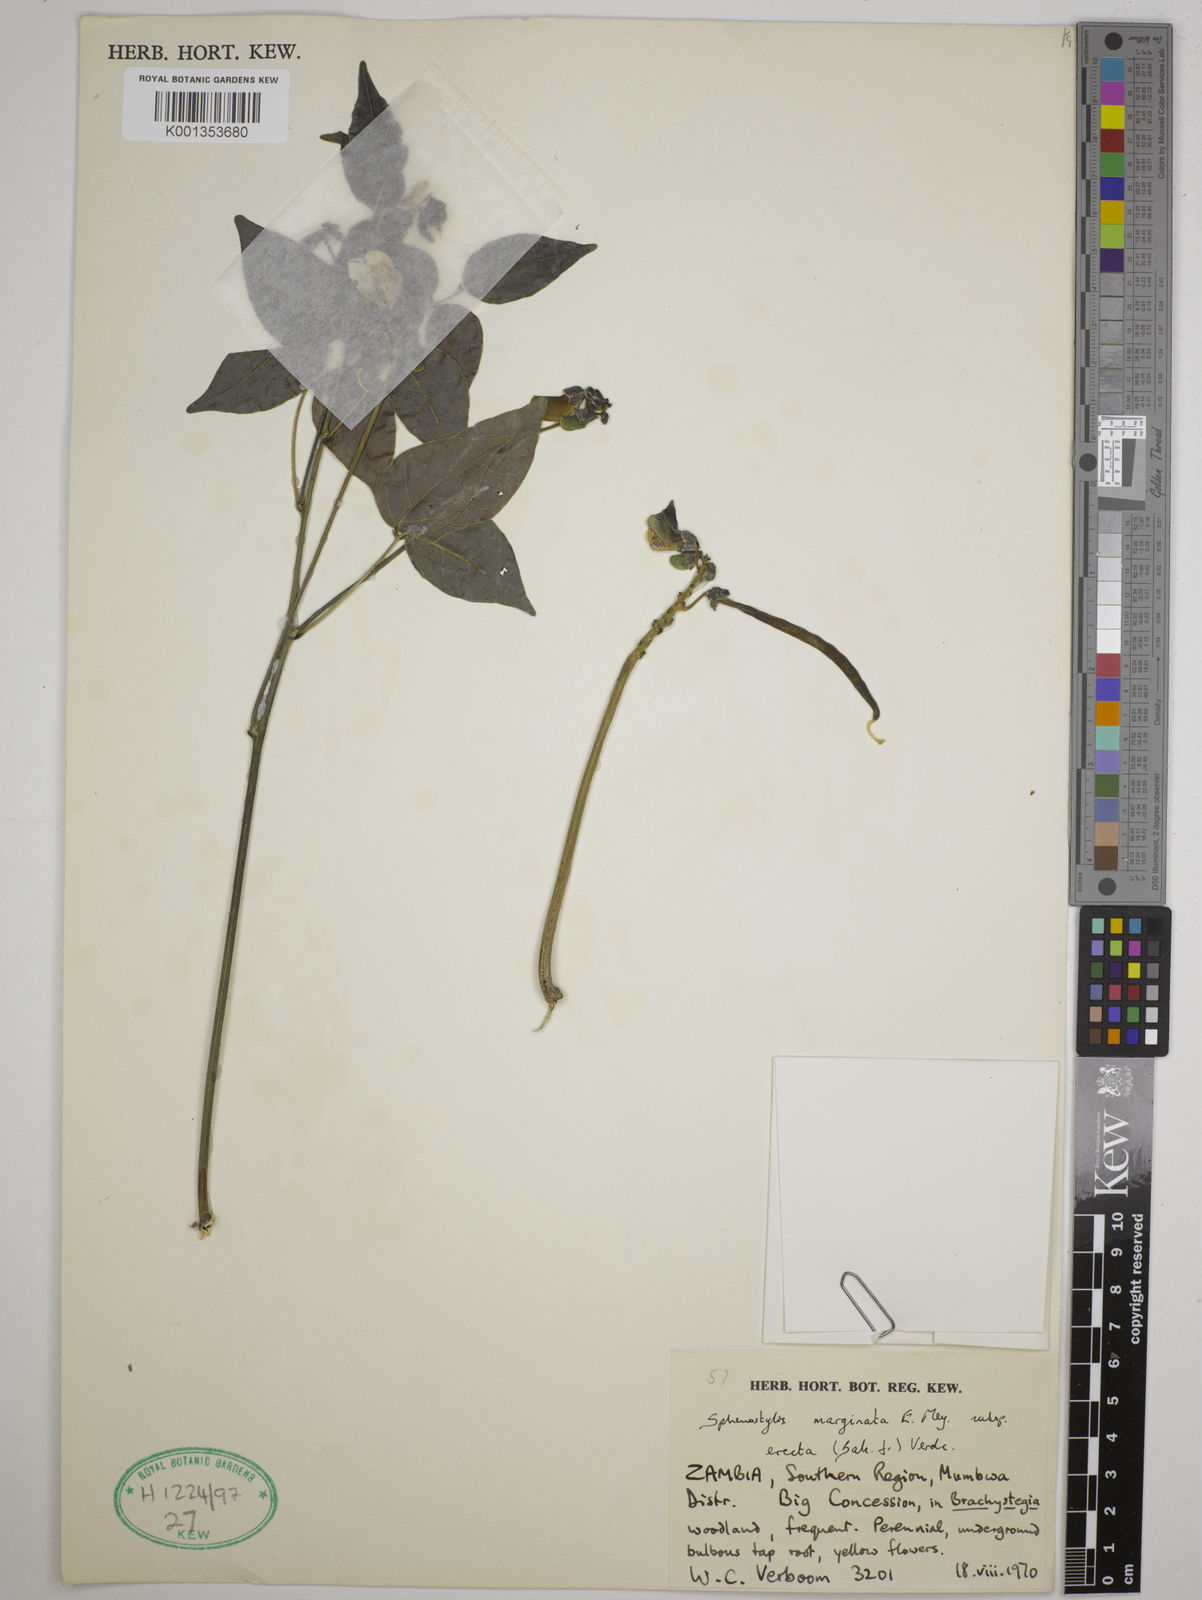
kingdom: Plantae
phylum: Tracheophyta
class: Magnoliopsida
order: Fabales
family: Fabaceae
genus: Sphenostylis
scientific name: Sphenostylis erecta
